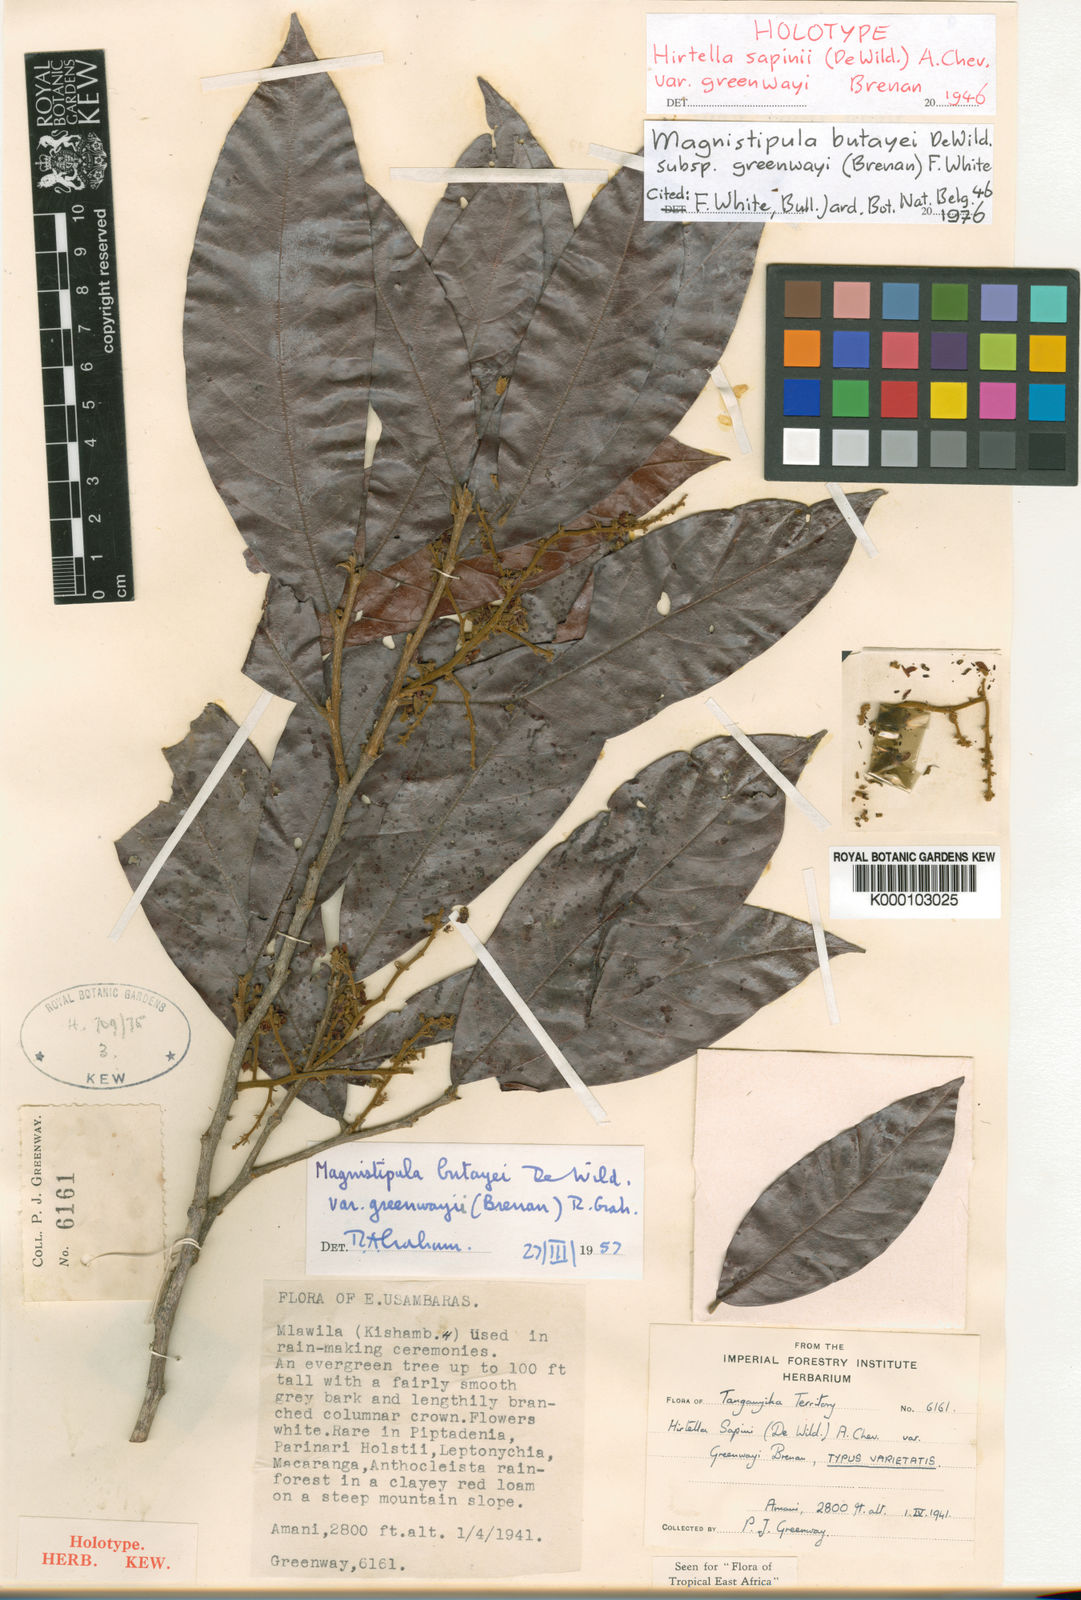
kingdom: Plantae
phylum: Tracheophyta
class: Magnoliopsida
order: Malpighiales
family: Chrysobalanaceae
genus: Magnistipula
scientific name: Magnistipula butayei
